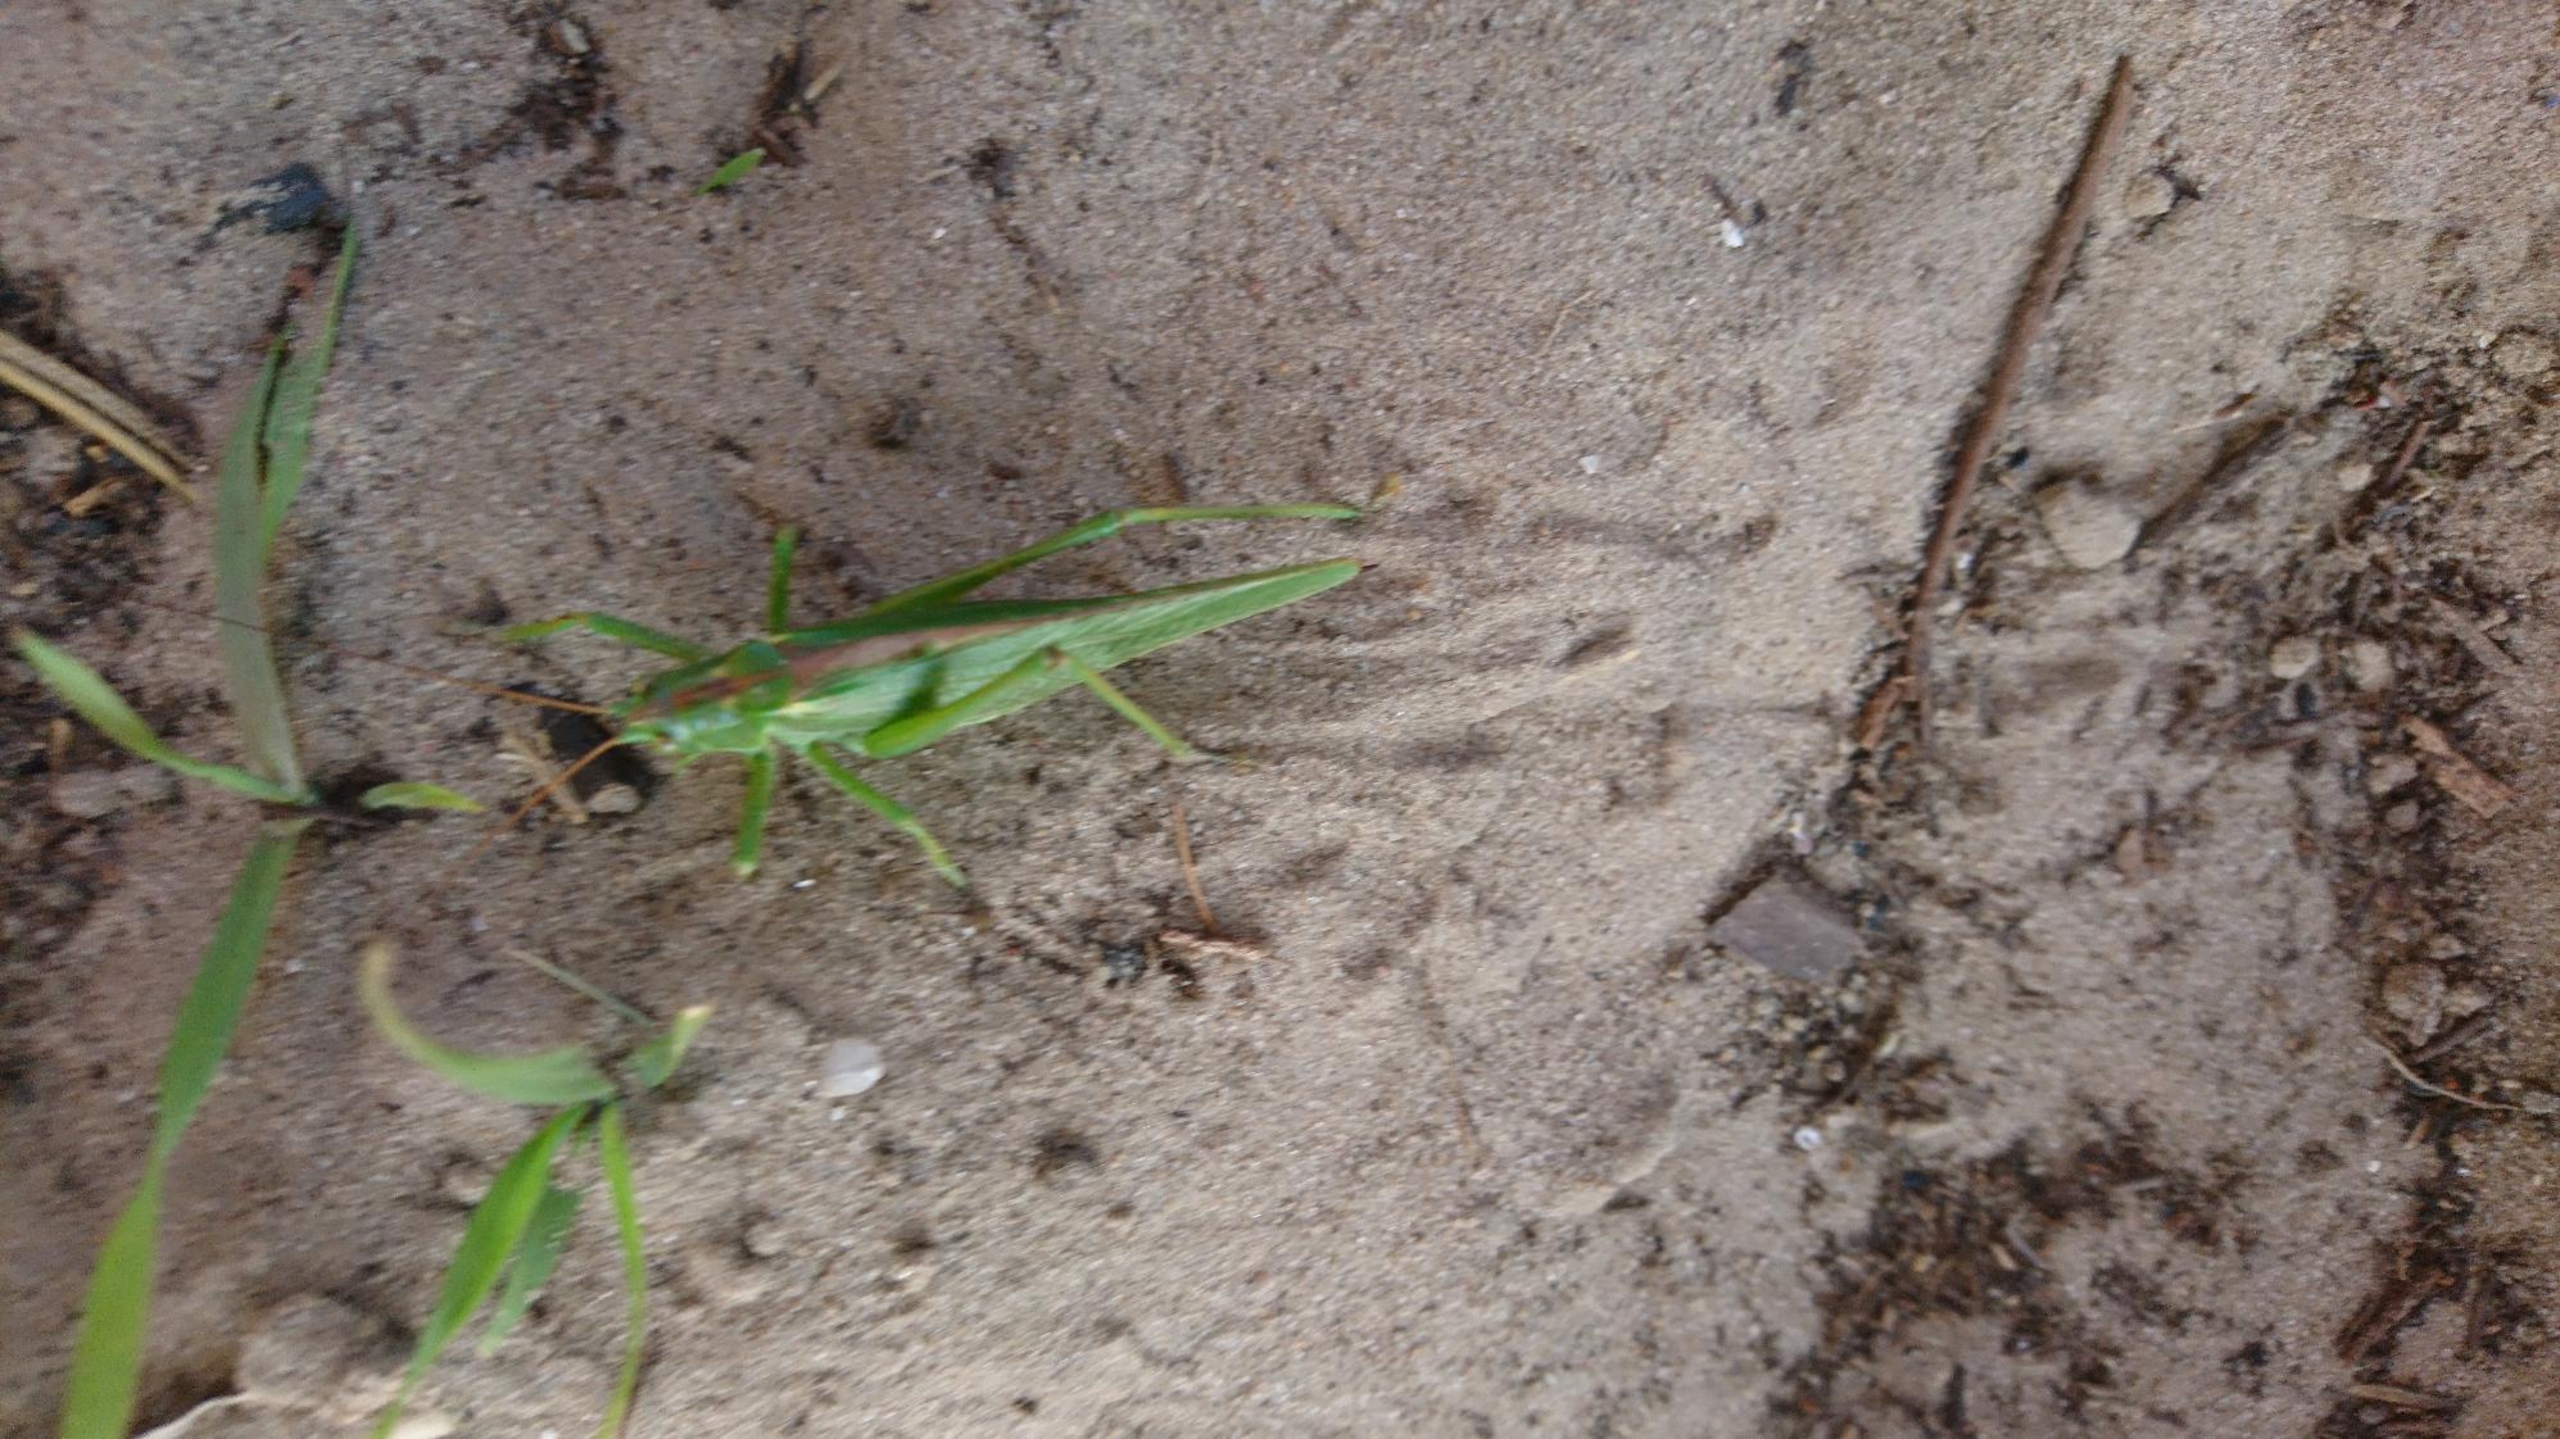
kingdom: Animalia
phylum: Arthropoda
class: Insecta
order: Orthoptera
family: Tettigoniidae
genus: Tettigonia
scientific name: Tettigonia viridissima
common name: Stor grøn løvgræshoppe
